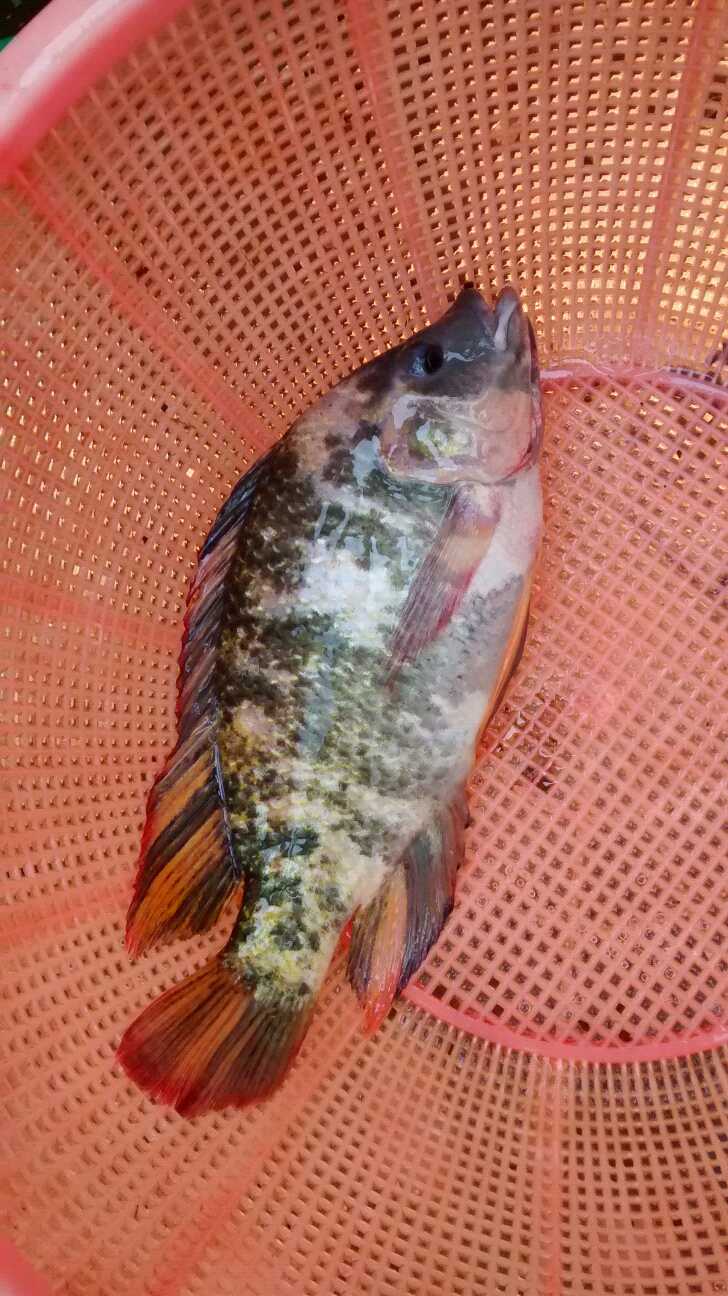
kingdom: Animalia
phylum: Chordata
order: Perciformes
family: Cichlidae
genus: Oreochromis
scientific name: Oreochromis mossambicus
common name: Mozambique tilapia
